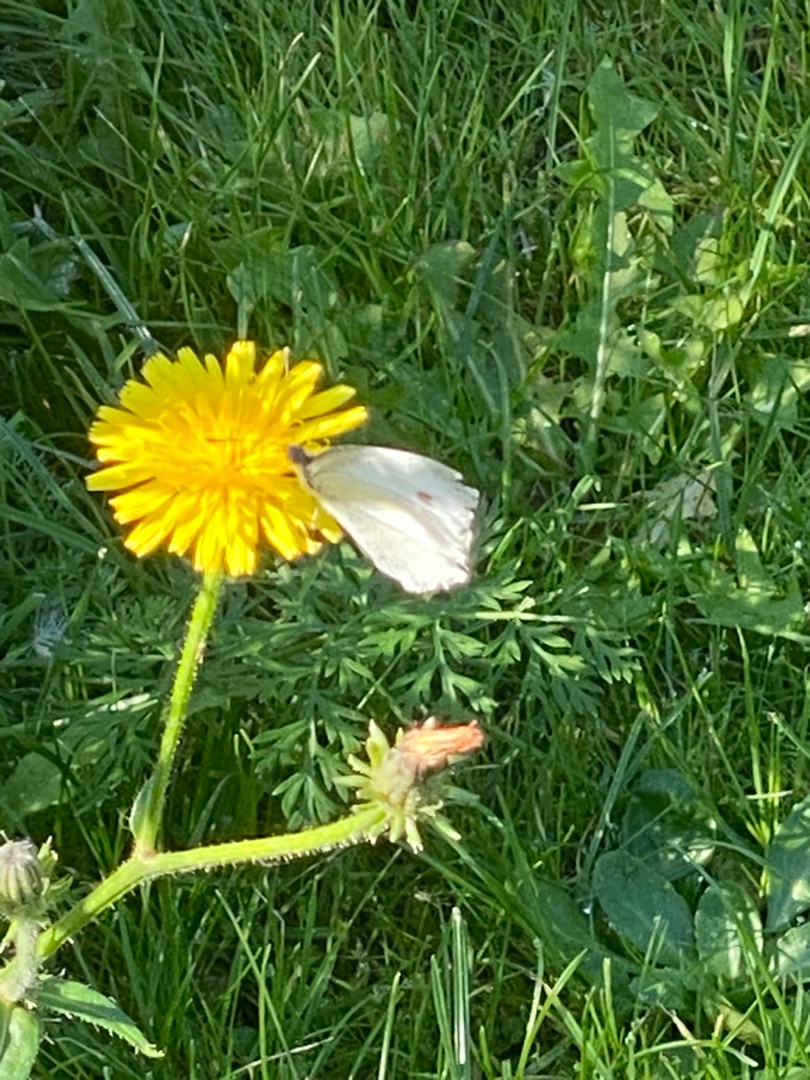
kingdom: Animalia
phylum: Arthropoda
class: Insecta
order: Lepidoptera
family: Pieridae
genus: Pieris
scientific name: Pieris rapae
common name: Lille kålsommerfugl
